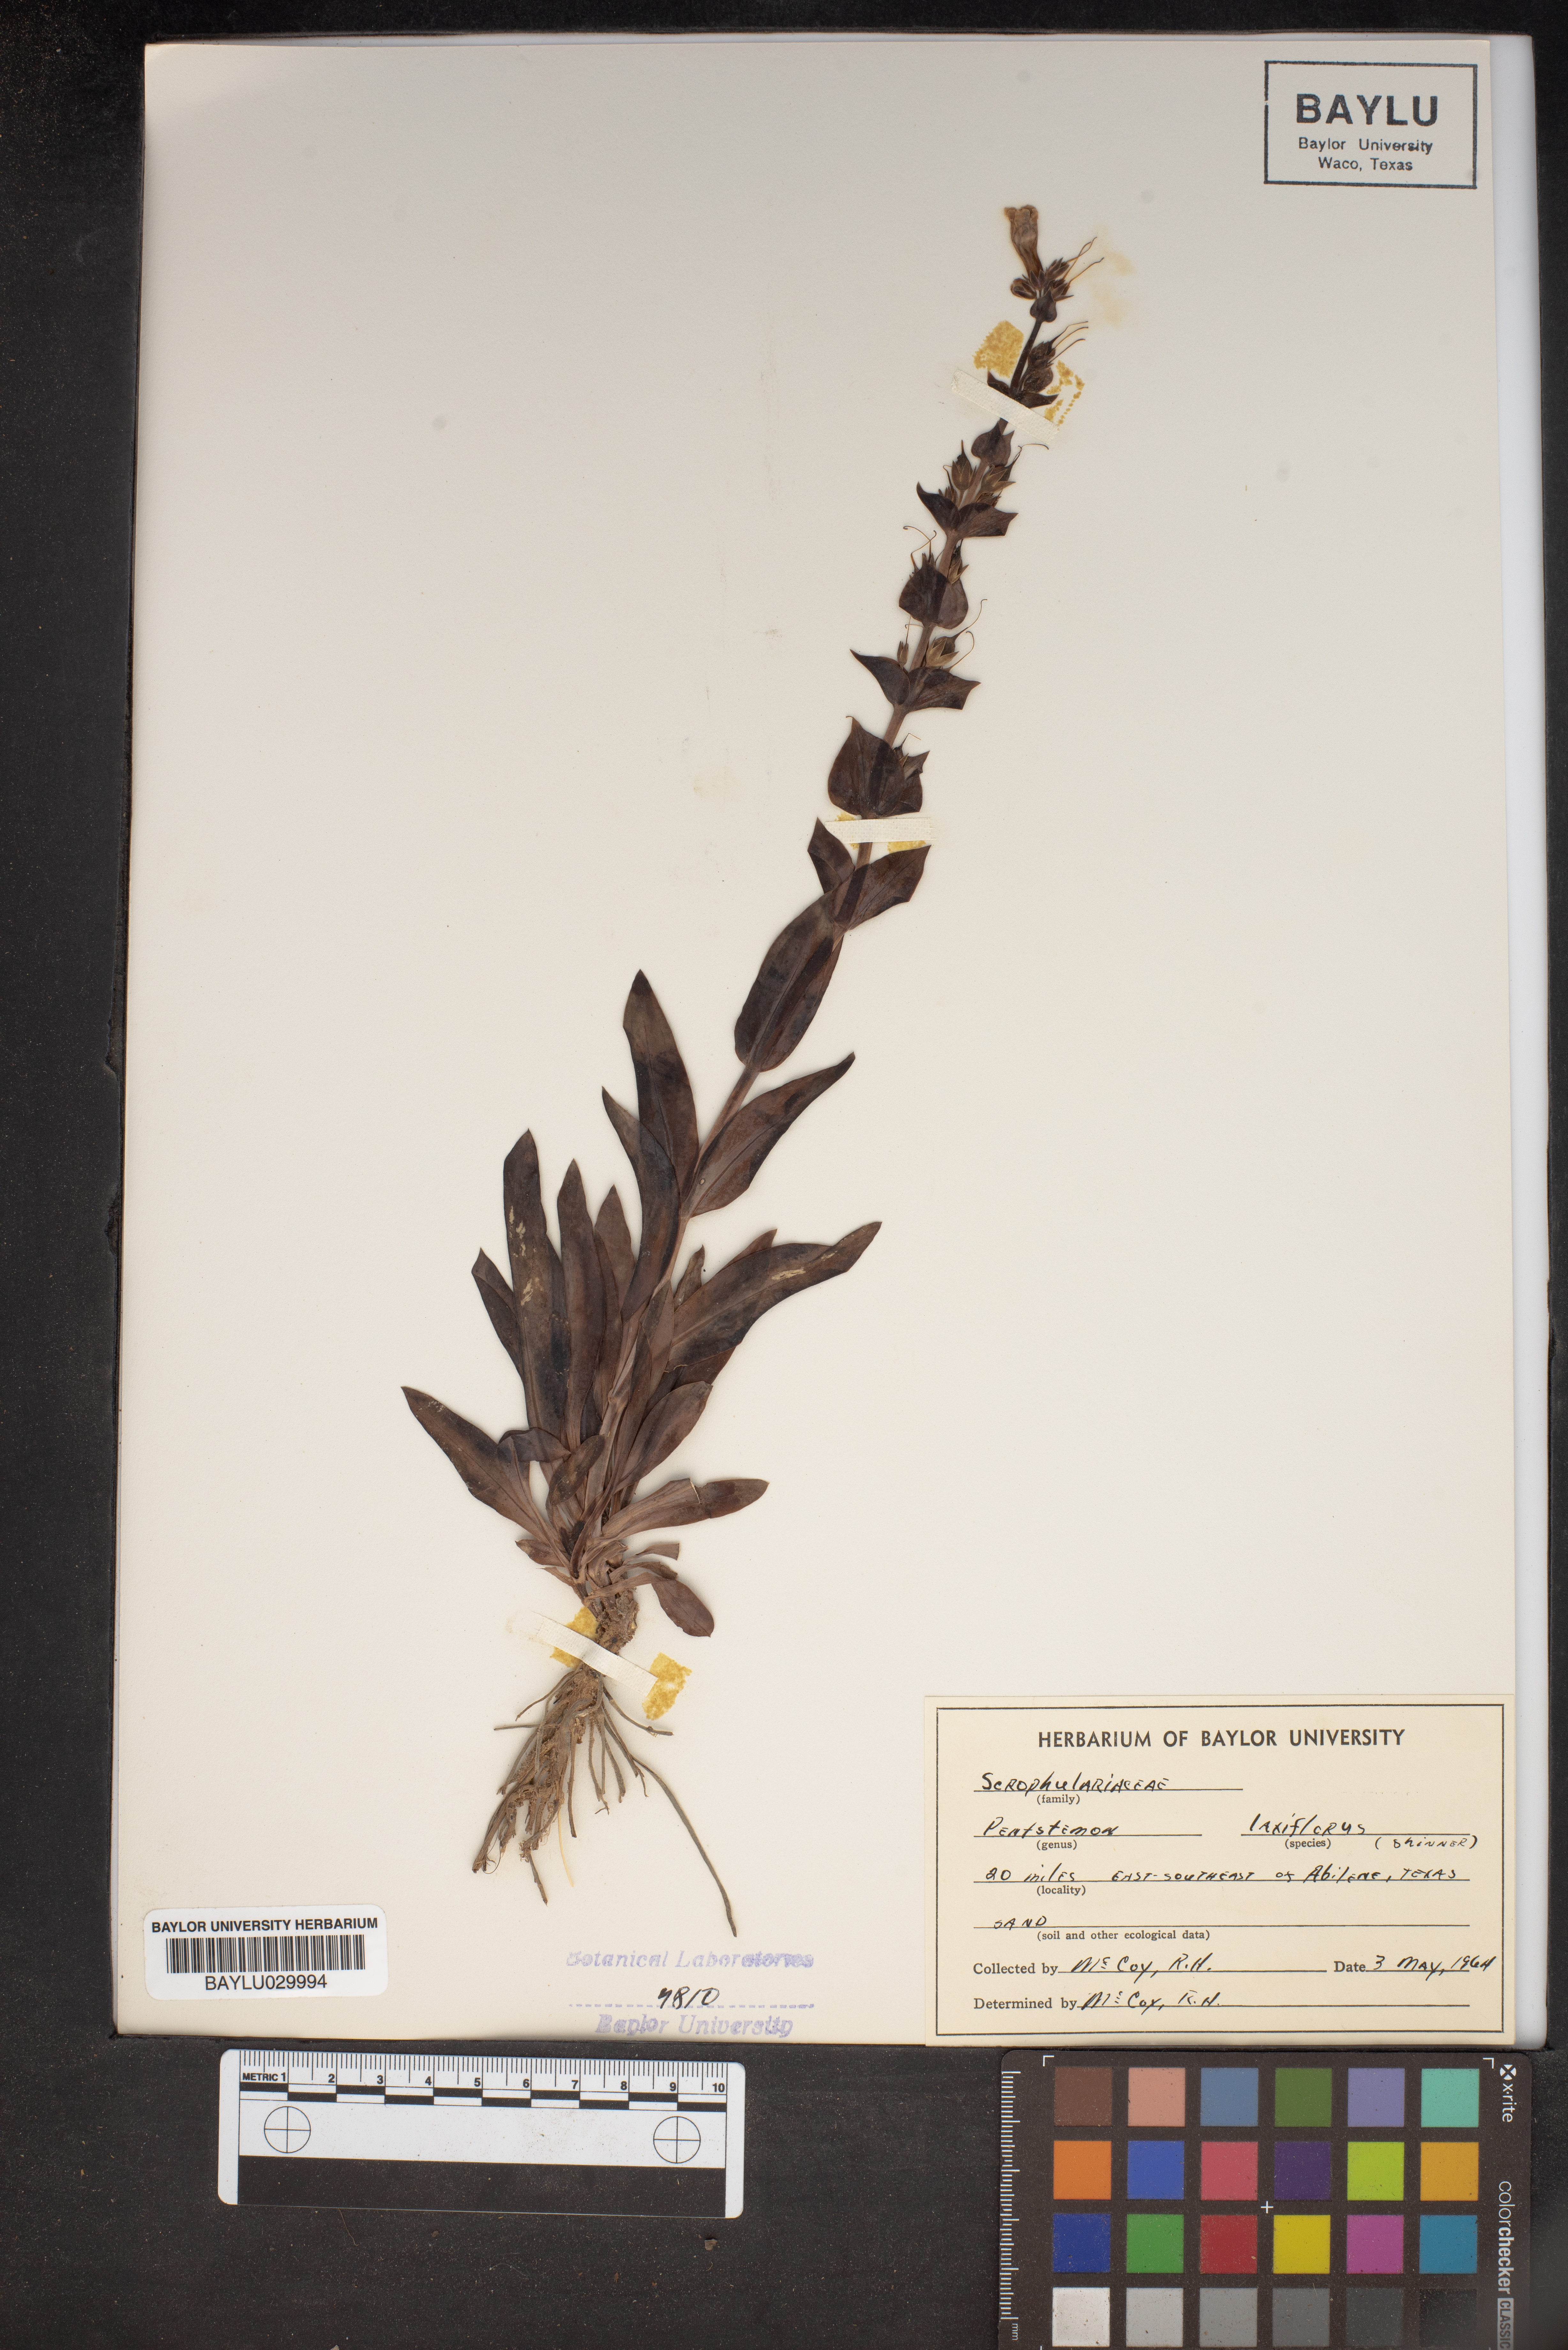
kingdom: Plantae
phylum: Tracheophyta
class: Magnoliopsida
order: Lamiales
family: Plantaginaceae
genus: Penstemon
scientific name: Penstemon laxiflorus
